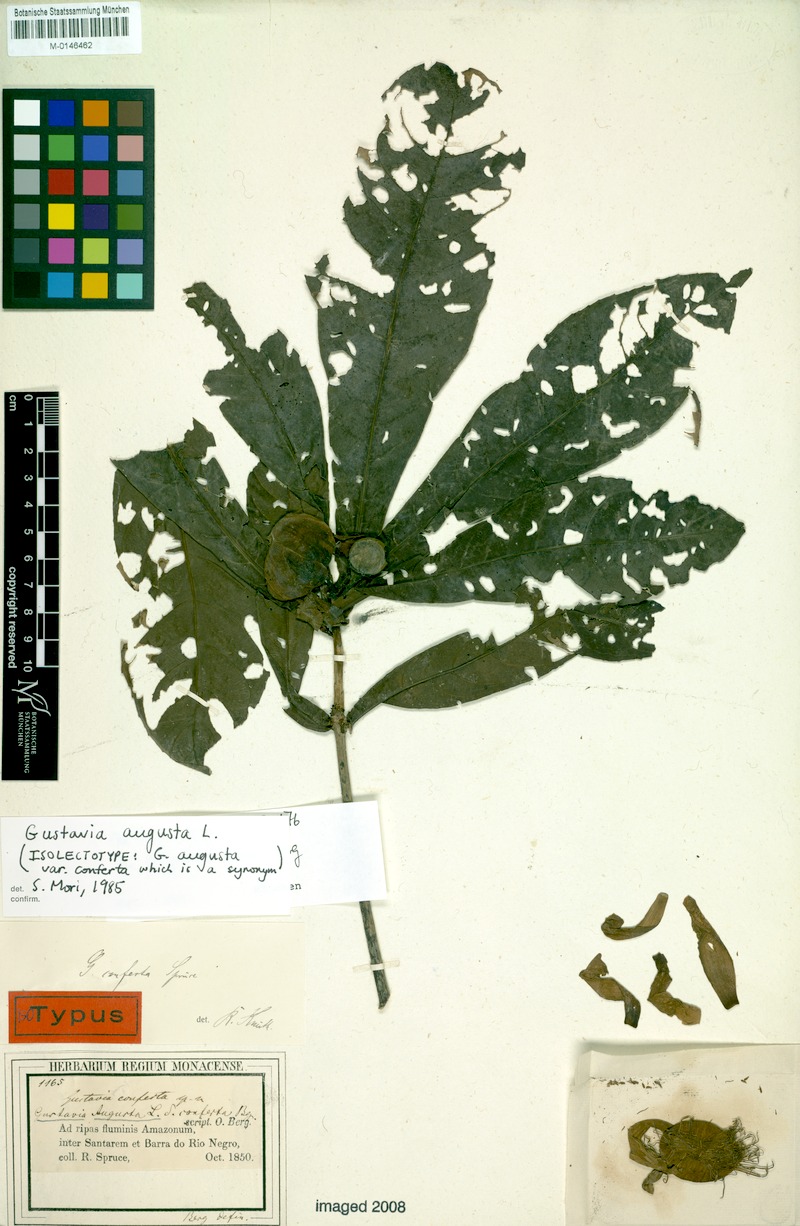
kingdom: Plantae
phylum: Tracheophyta
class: Magnoliopsida
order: Ericales
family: Lecythidaceae
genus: Gustavia
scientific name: Gustavia augusta
